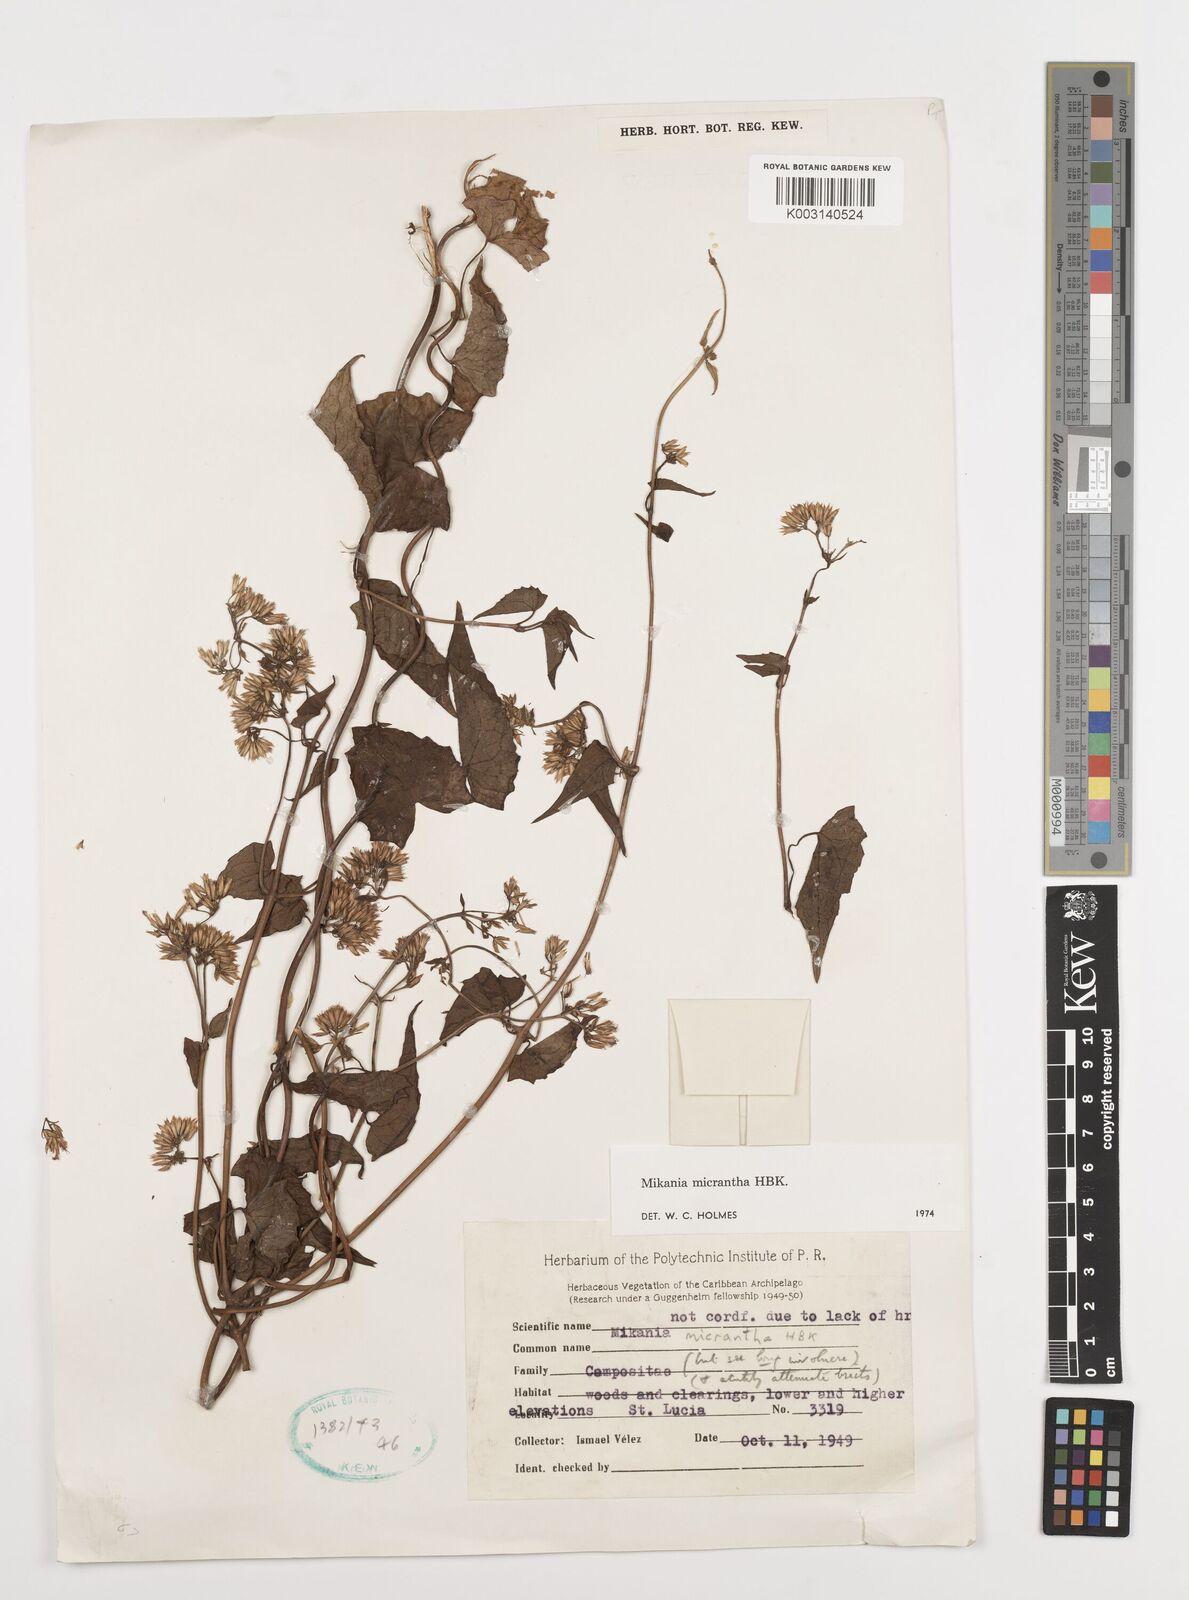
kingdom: Plantae
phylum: Tracheophyta
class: Magnoliopsida
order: Asterales
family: Asteraceae
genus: Mikania
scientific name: Mikania micrantha
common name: Mile-a-minute
